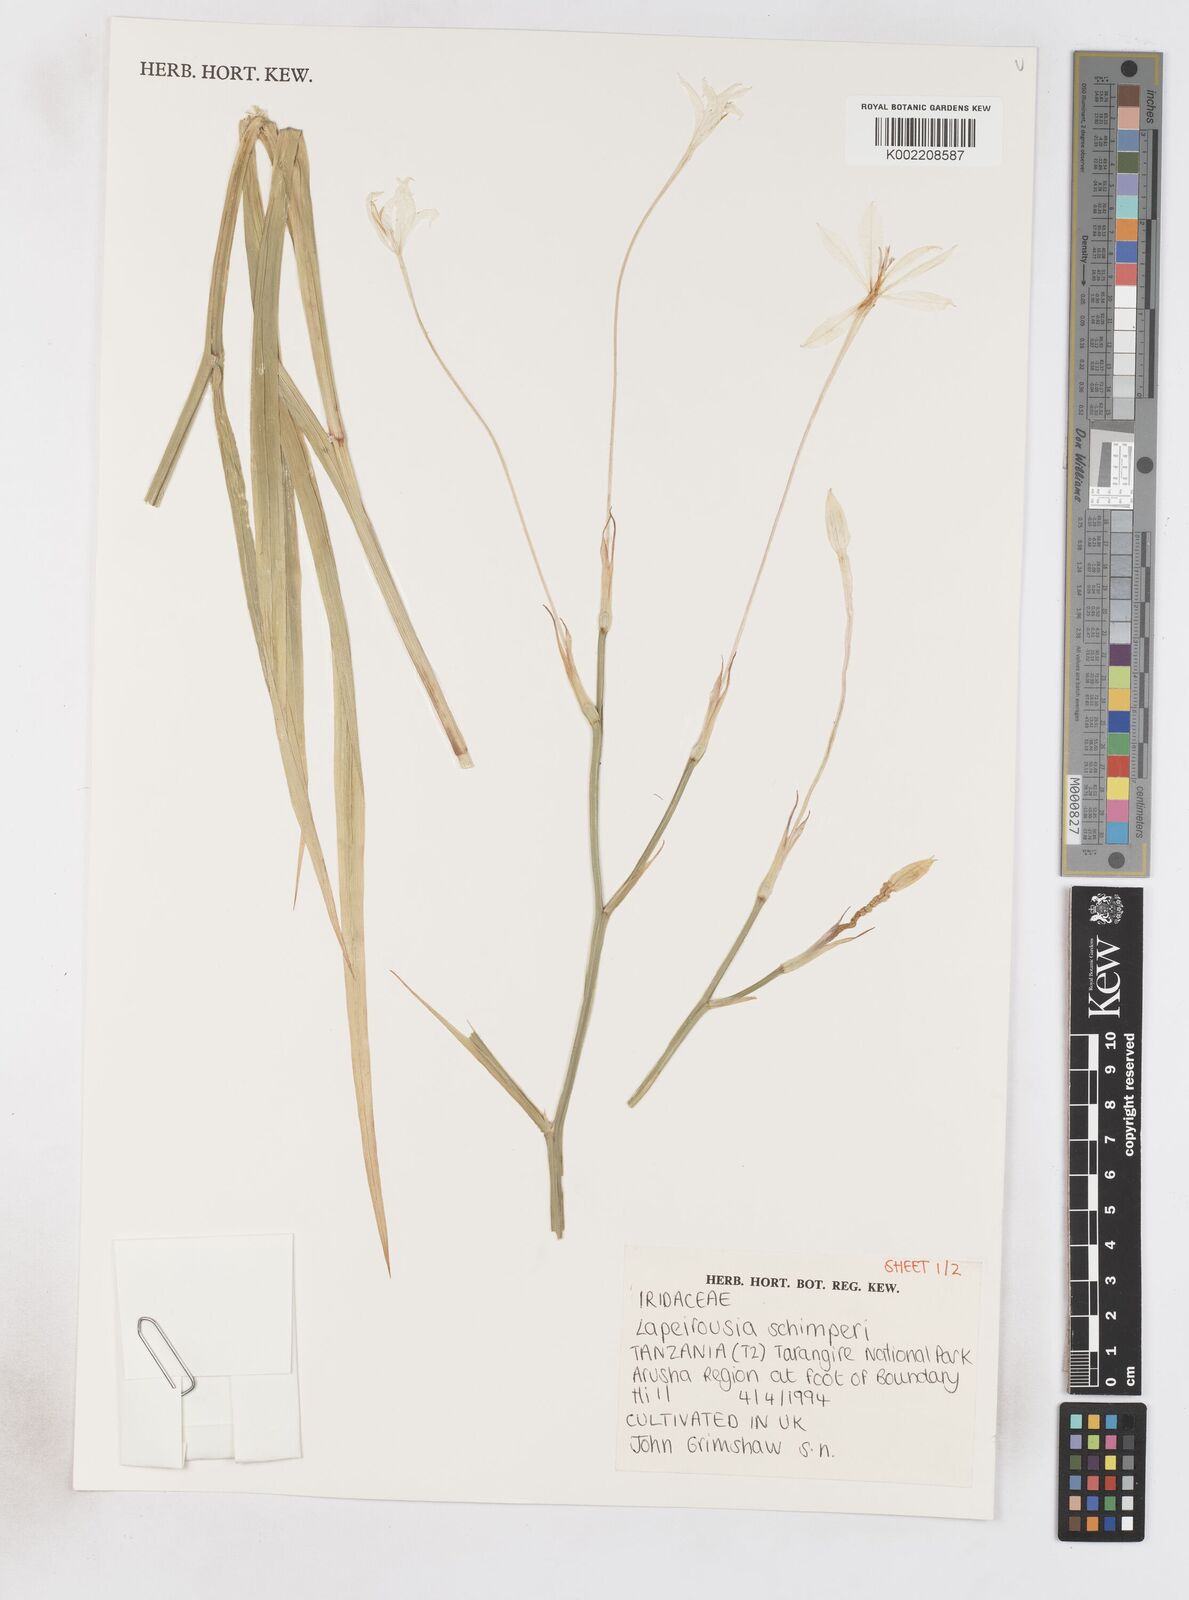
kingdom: Plantae
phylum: Tracheophyta
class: Liliopsida
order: Asparagales
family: Iridaceae
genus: Afrosolen
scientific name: Afrosolen schimperi
